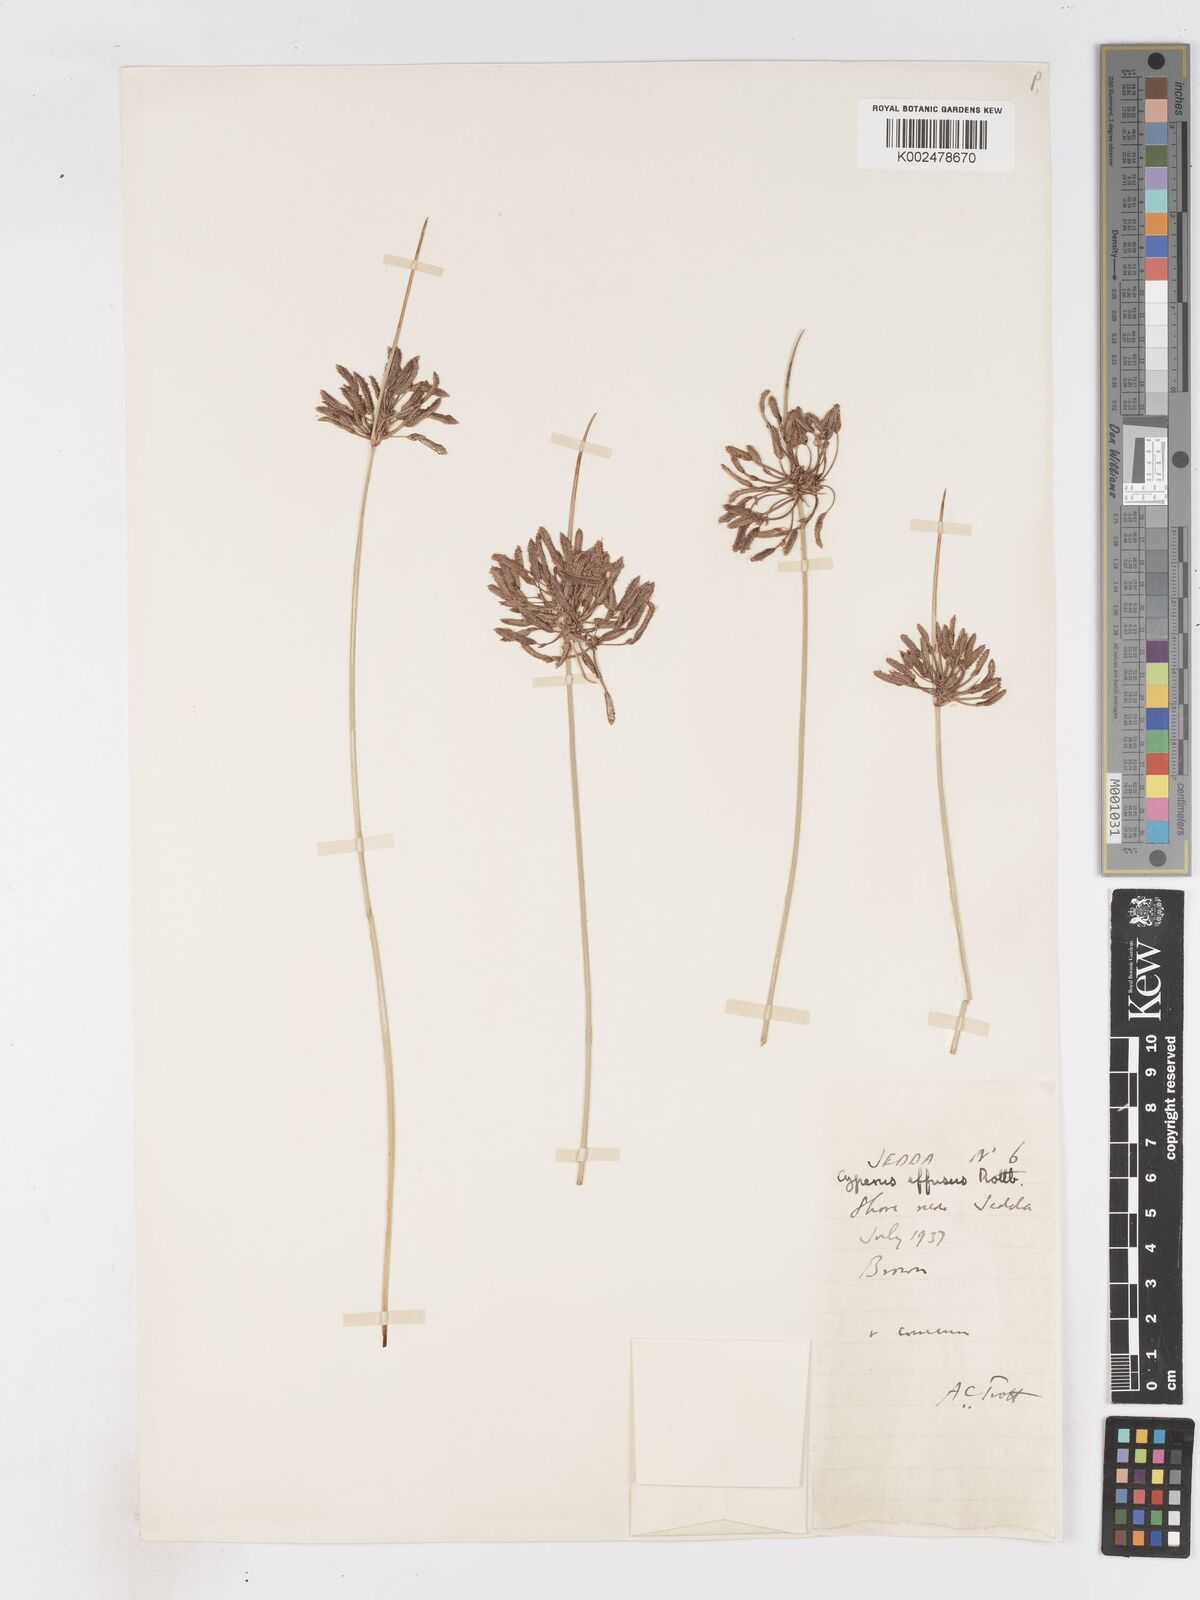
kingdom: Plantae
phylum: Tracheophyta
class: Liliopsida
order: Poales
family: Cyperaceae
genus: Cyperus
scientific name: Cyperus conglomeratus
